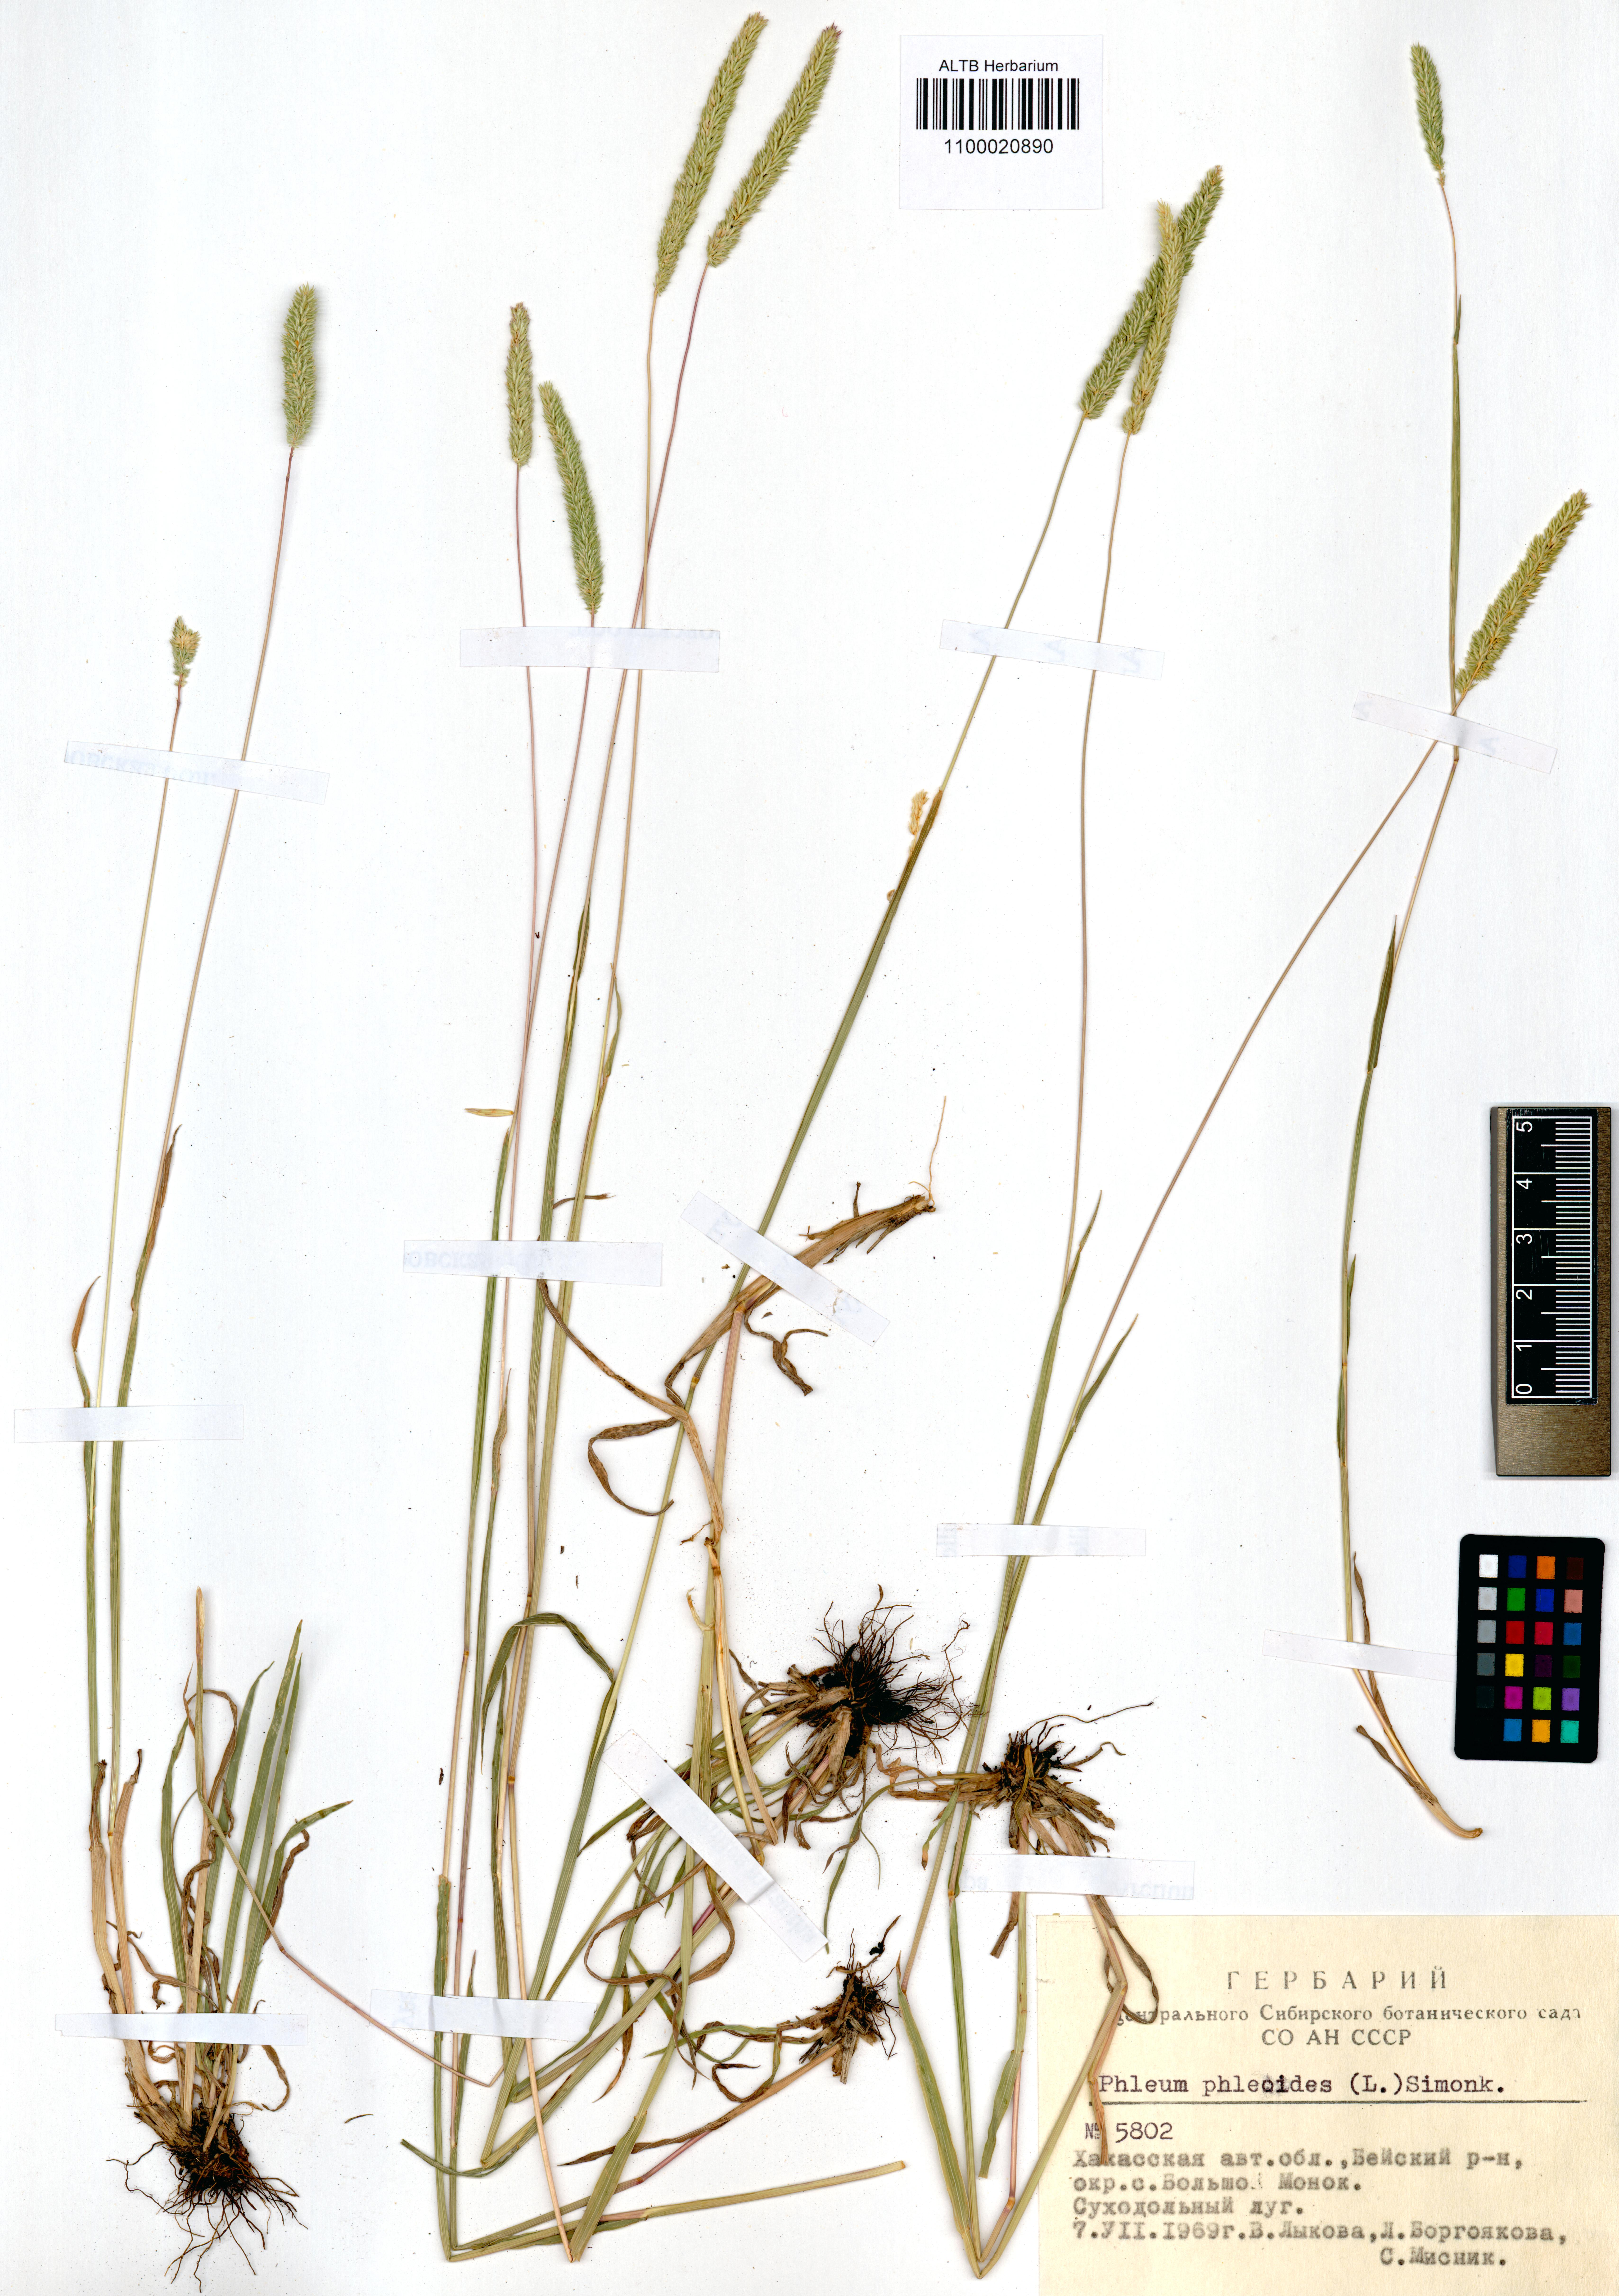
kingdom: Plantae
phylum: Tracheophyta
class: Liliopsida
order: Poales
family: Poaceae
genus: Phleum
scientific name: Phleum phleoides
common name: Purple-stem cat's-tail
